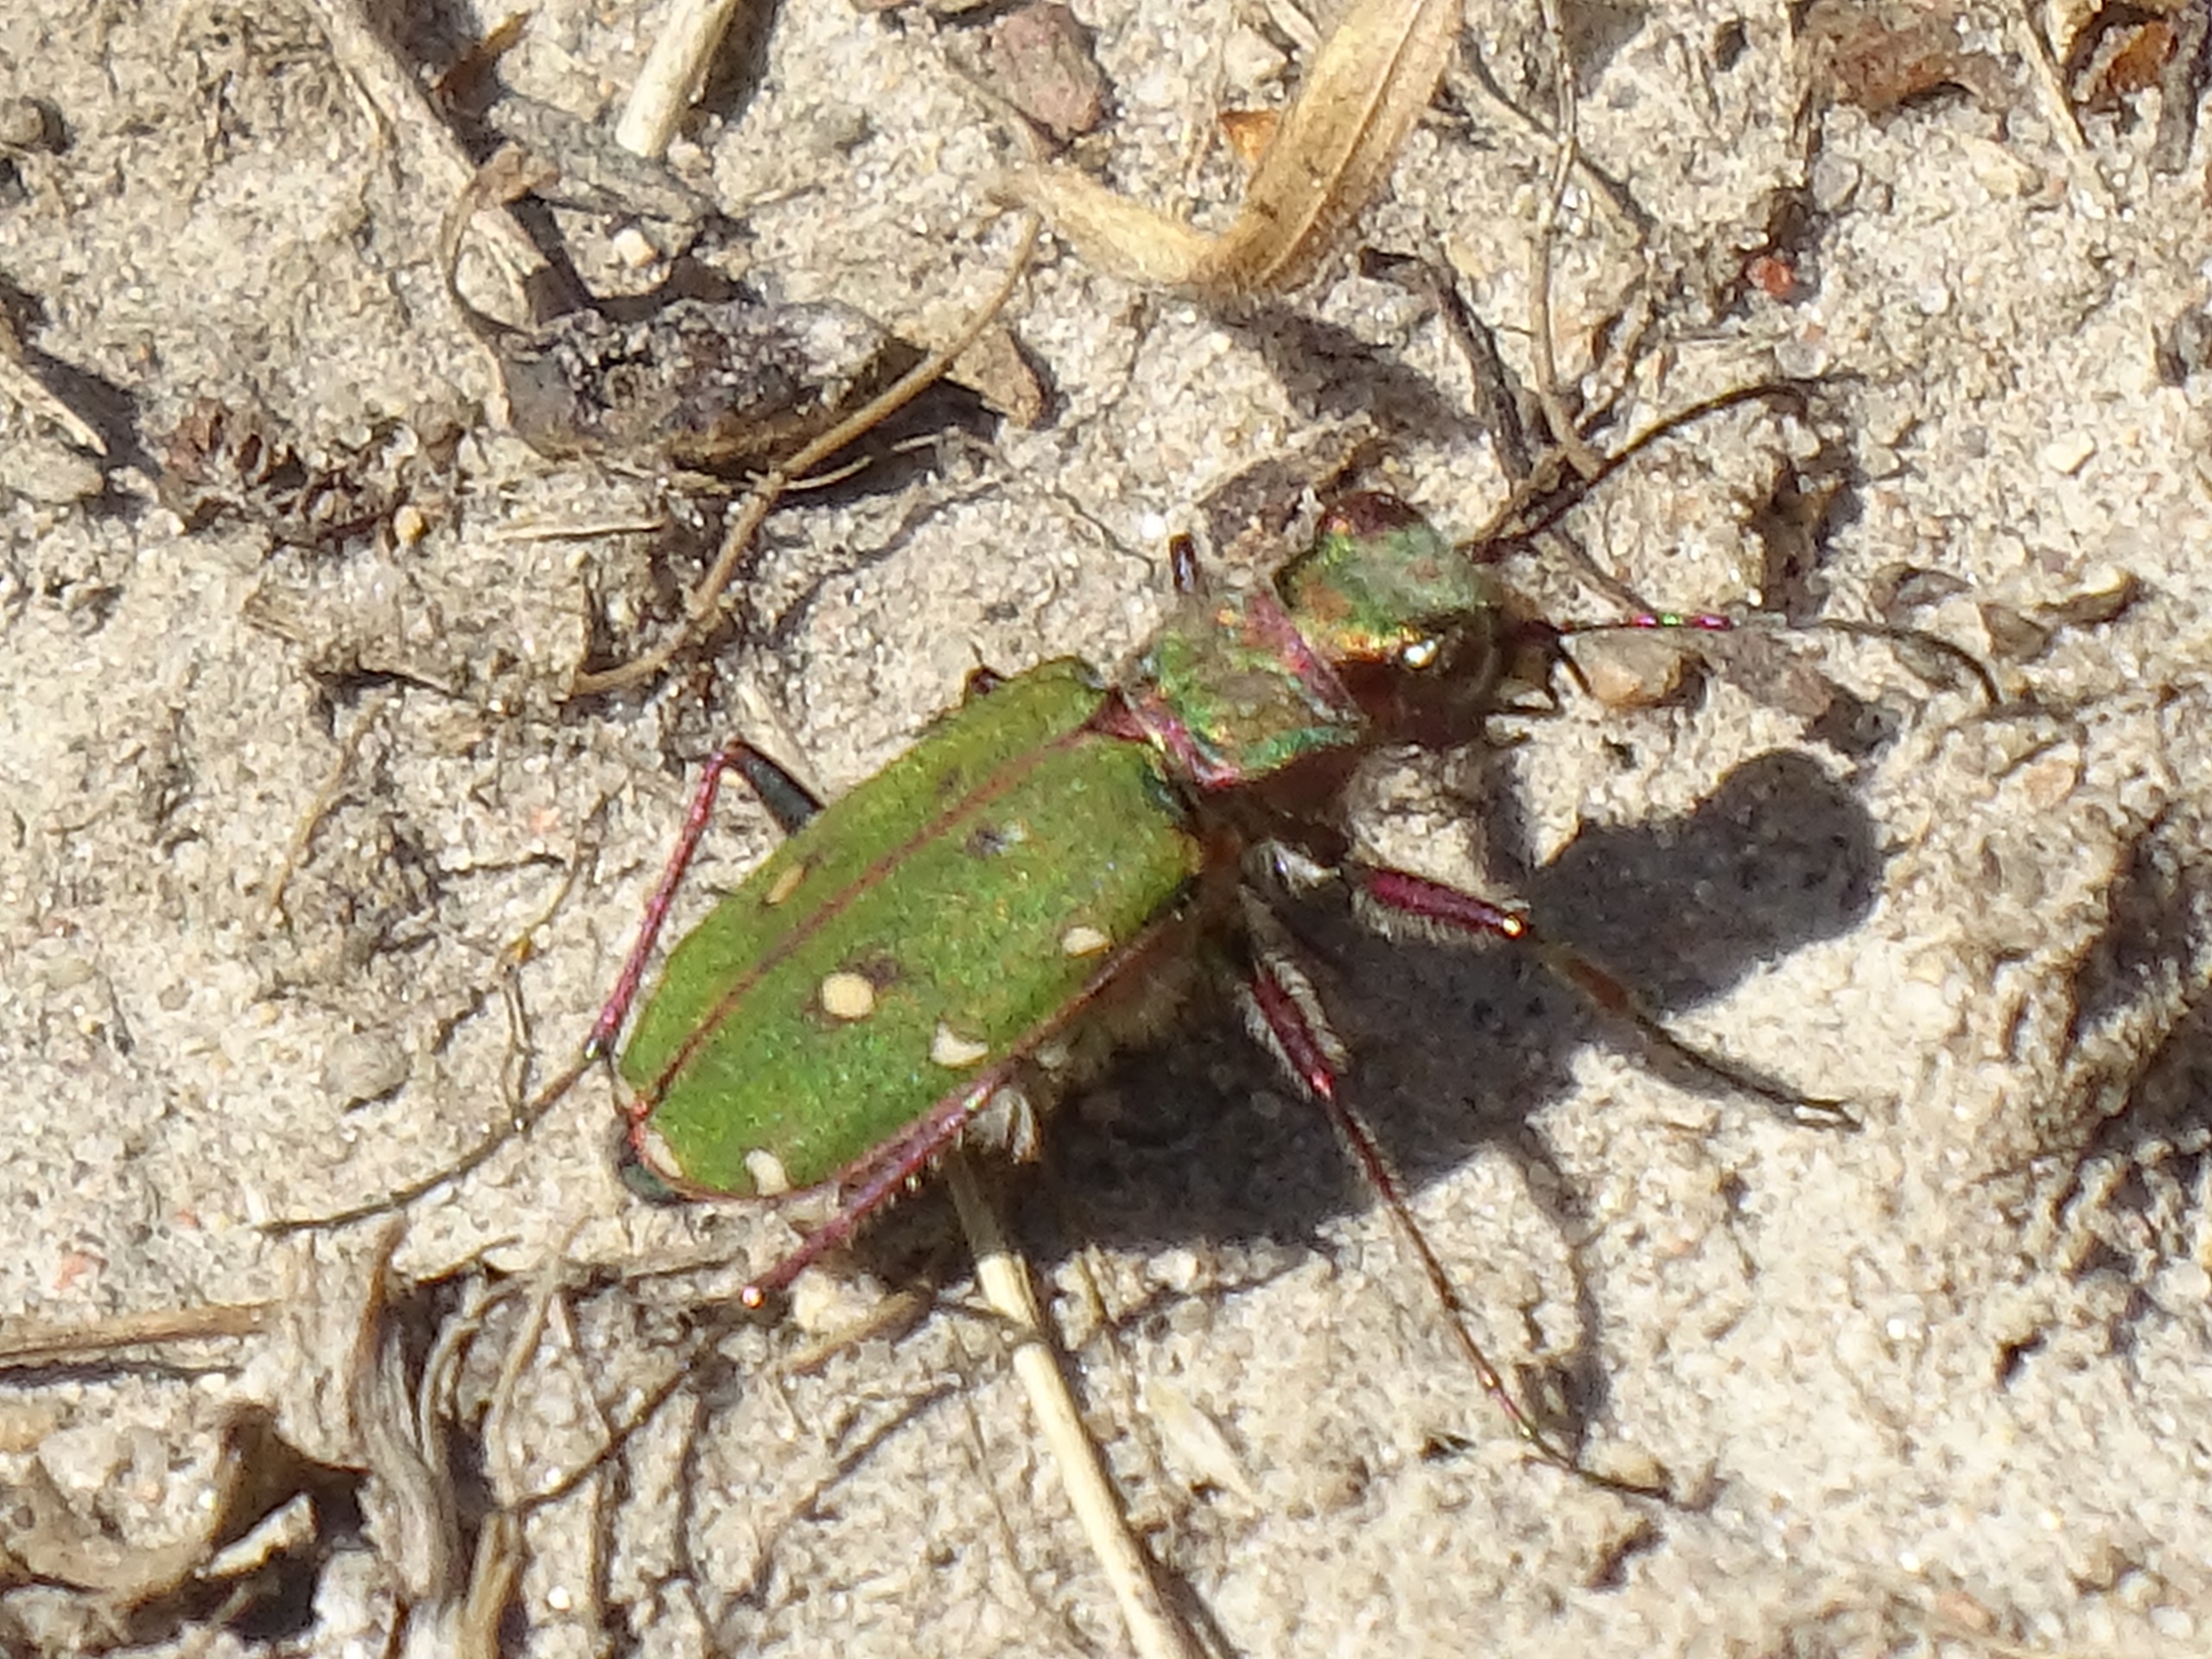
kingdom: Animalia
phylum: Arthropoda
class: Insecta
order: Coleoptera
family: Carabidae
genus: Cicindela
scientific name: Cicindela campestris
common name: Grøn sandspringer
